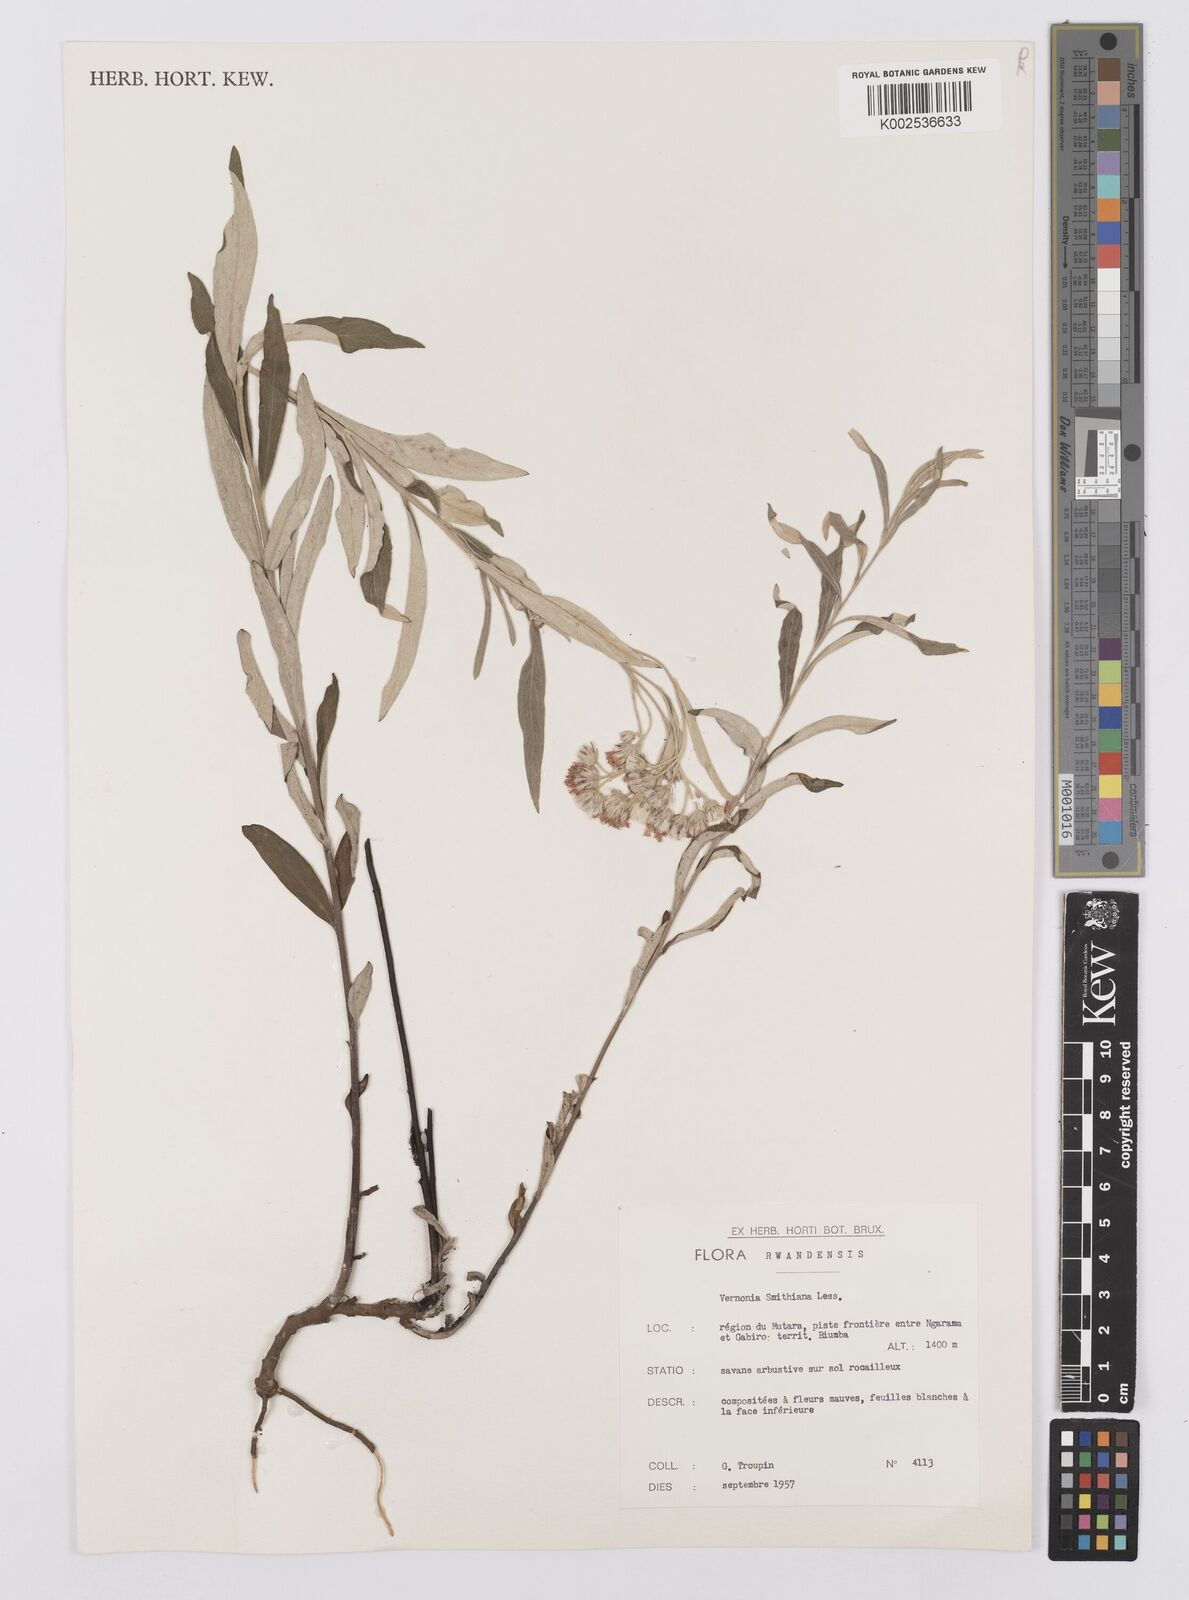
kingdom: Plantae
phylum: Tracheophyta
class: Magnoliopsida
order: Asterales
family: Asteraceae
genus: Hilliardiella
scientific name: Hilliardiella smithiana
